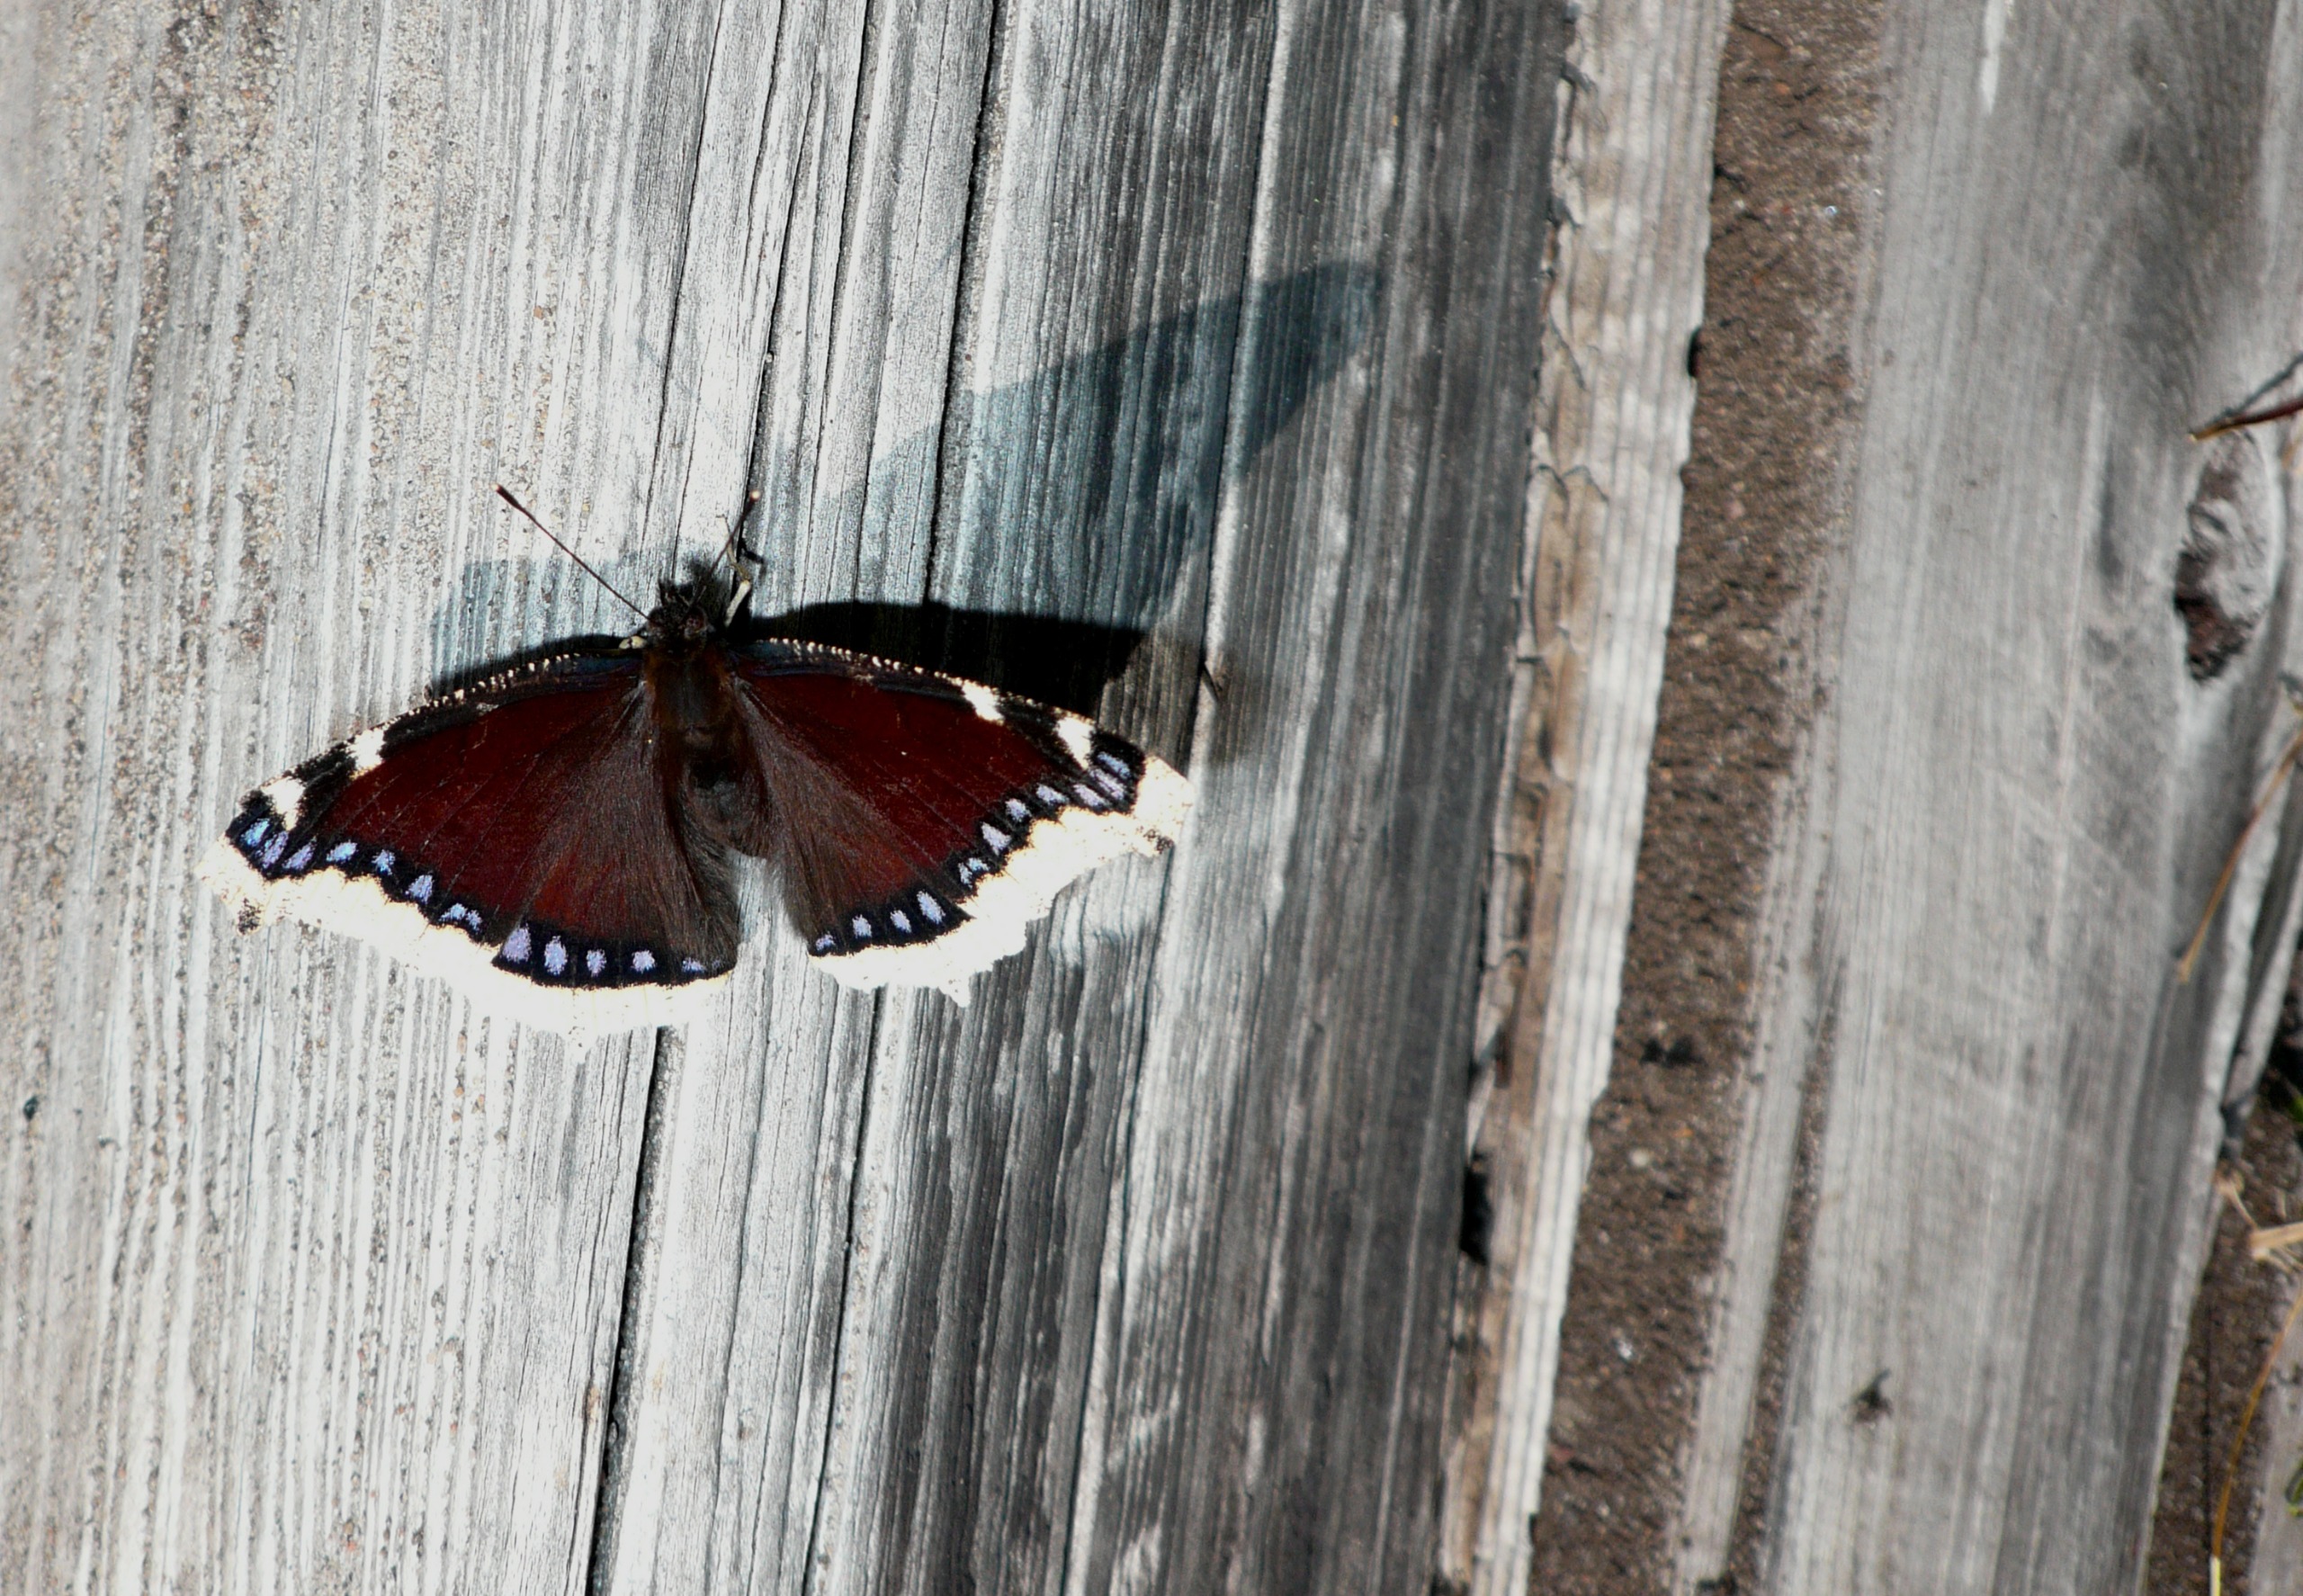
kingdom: Animalia
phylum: Arthropoda
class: Insecta
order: Lepidoptera
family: Nymphalidae
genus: Nymphalis
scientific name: Nymphalis antiopa
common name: Sørgekåbe
